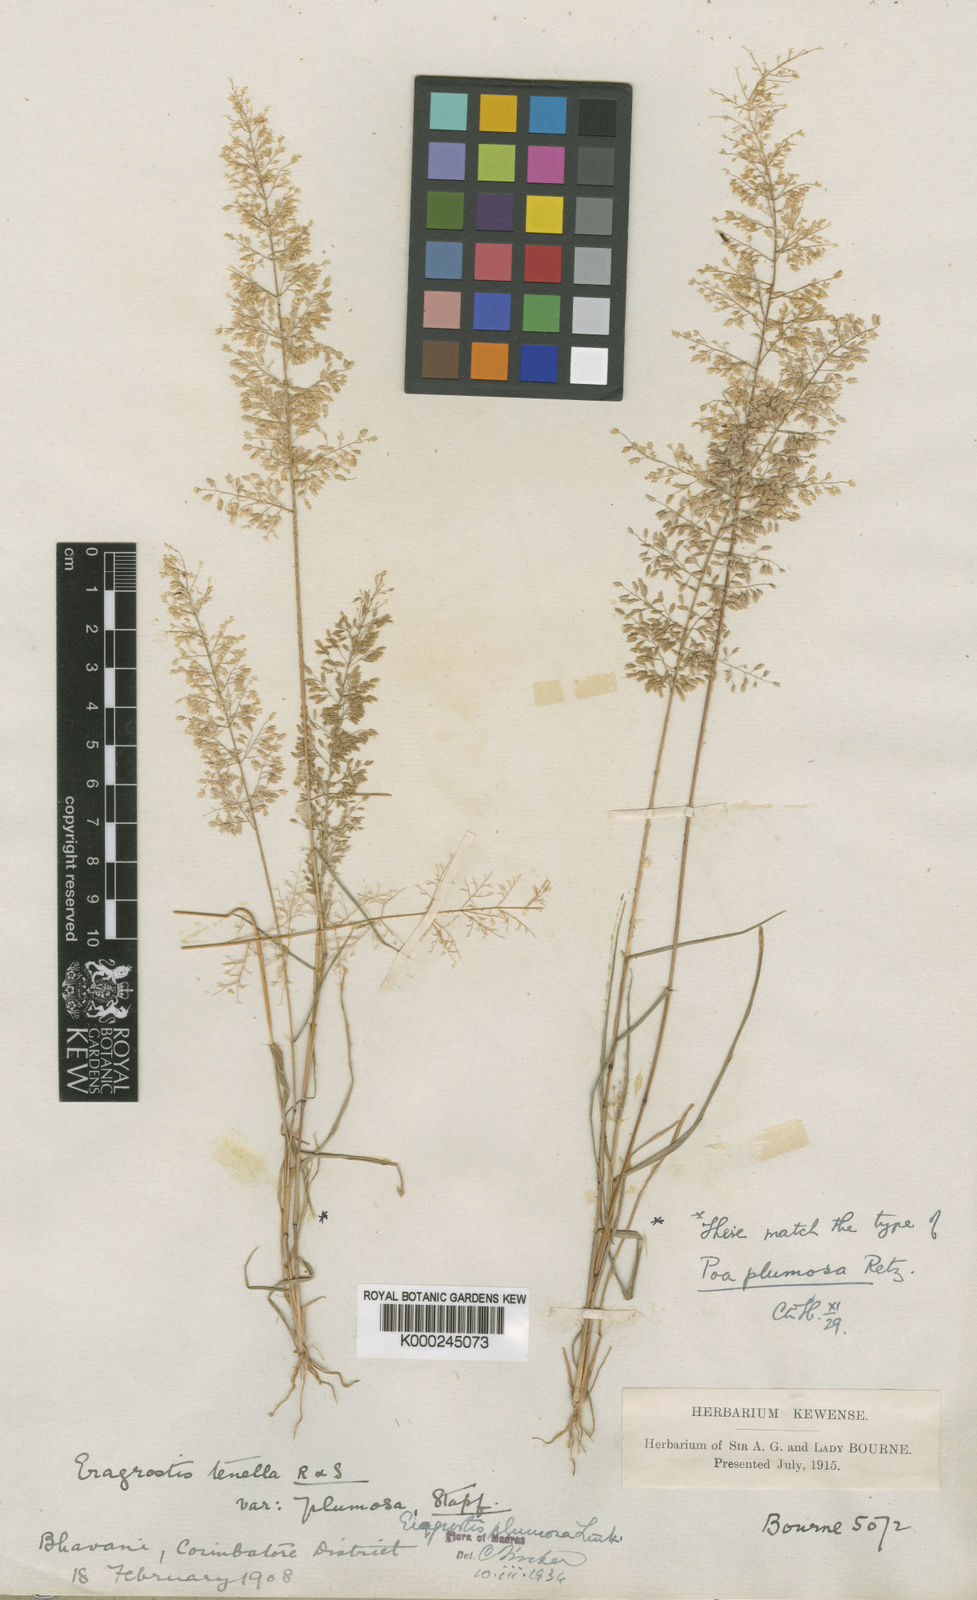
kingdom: Plantae
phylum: Tracheophyta
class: Liliopsida
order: Poales
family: Poaceae
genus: Eragrostis
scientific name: Eragrostis tenella
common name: Japanese lovegrass
